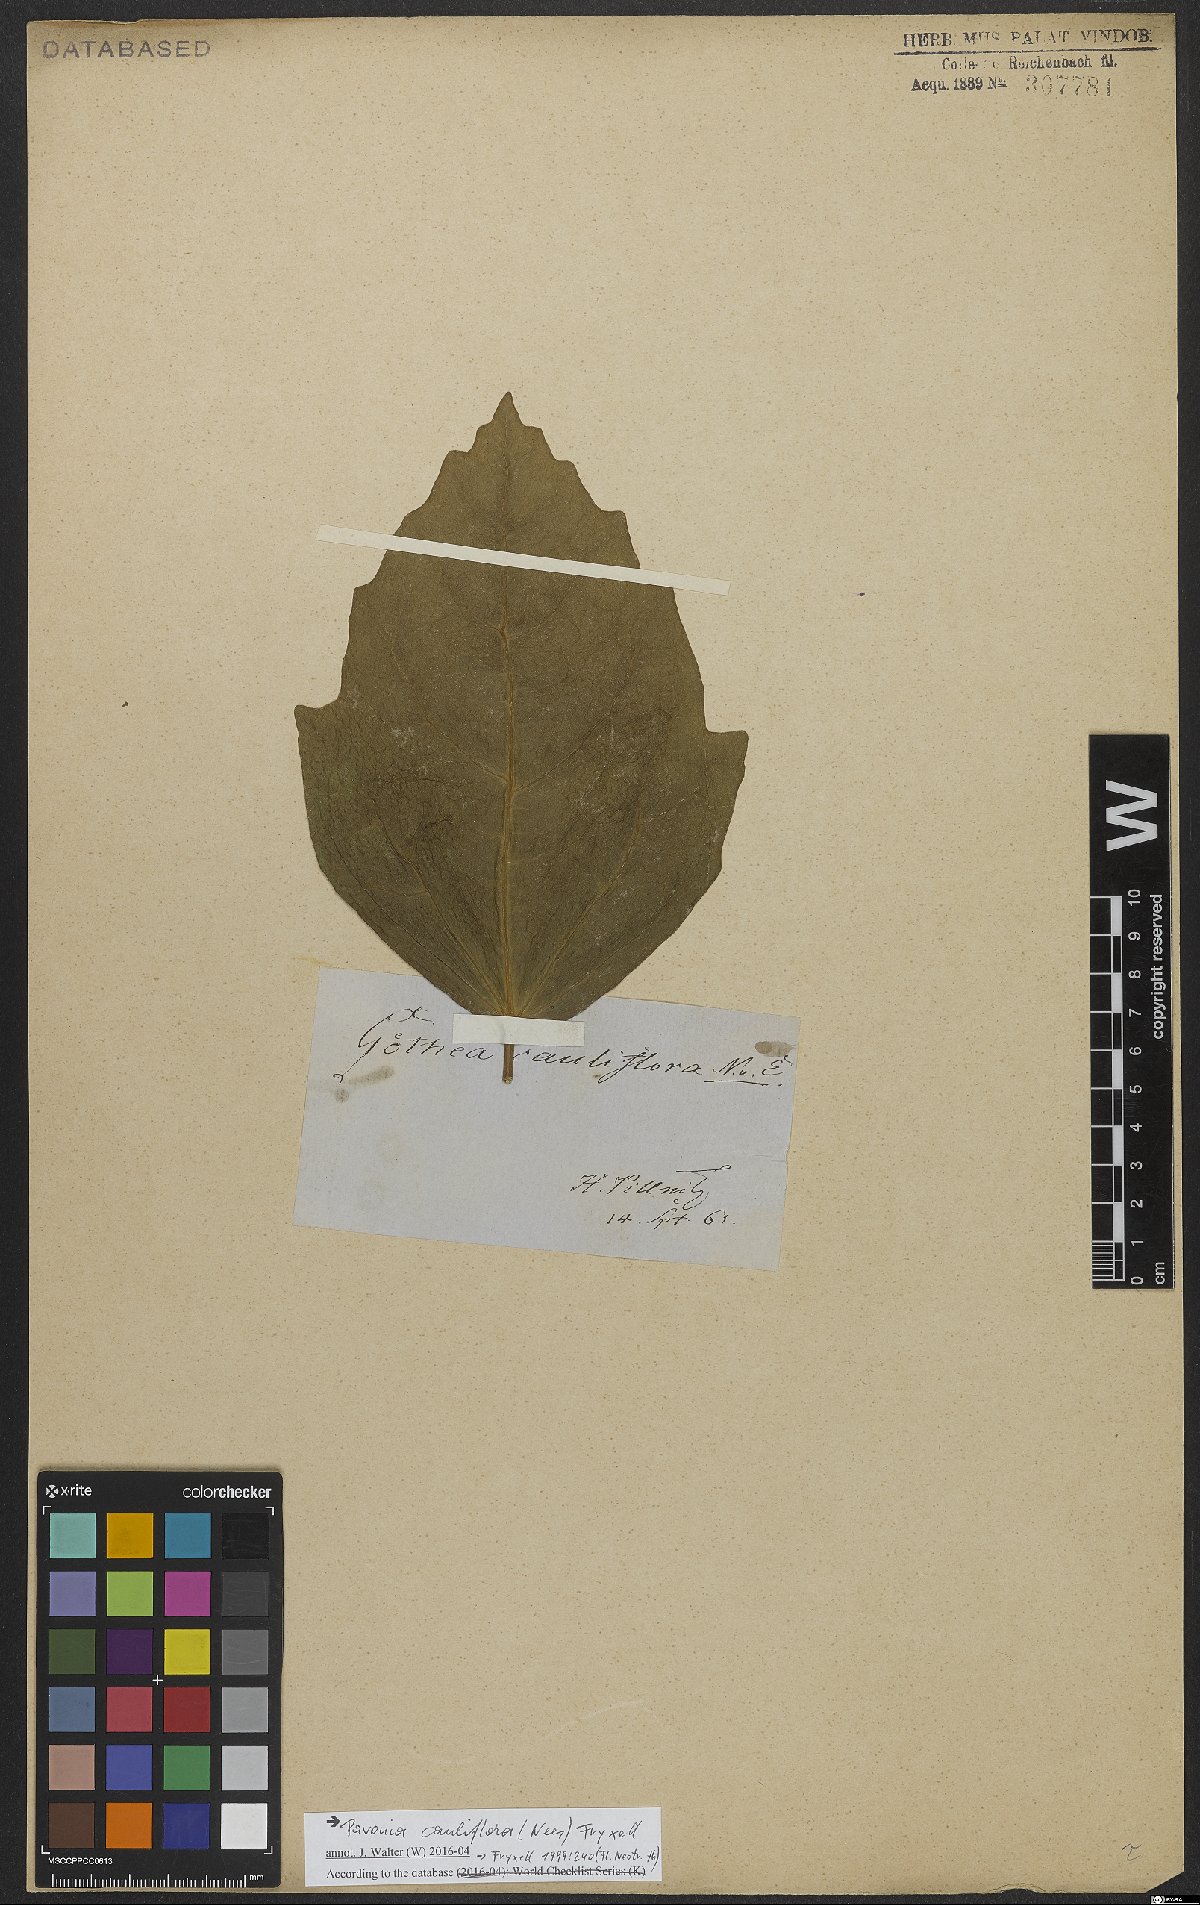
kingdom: Plantae
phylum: Tracheophyta
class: Magnoliopsida
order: Malvales
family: Malvaceae
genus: Pavonia
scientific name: Pavonia cauliflora
